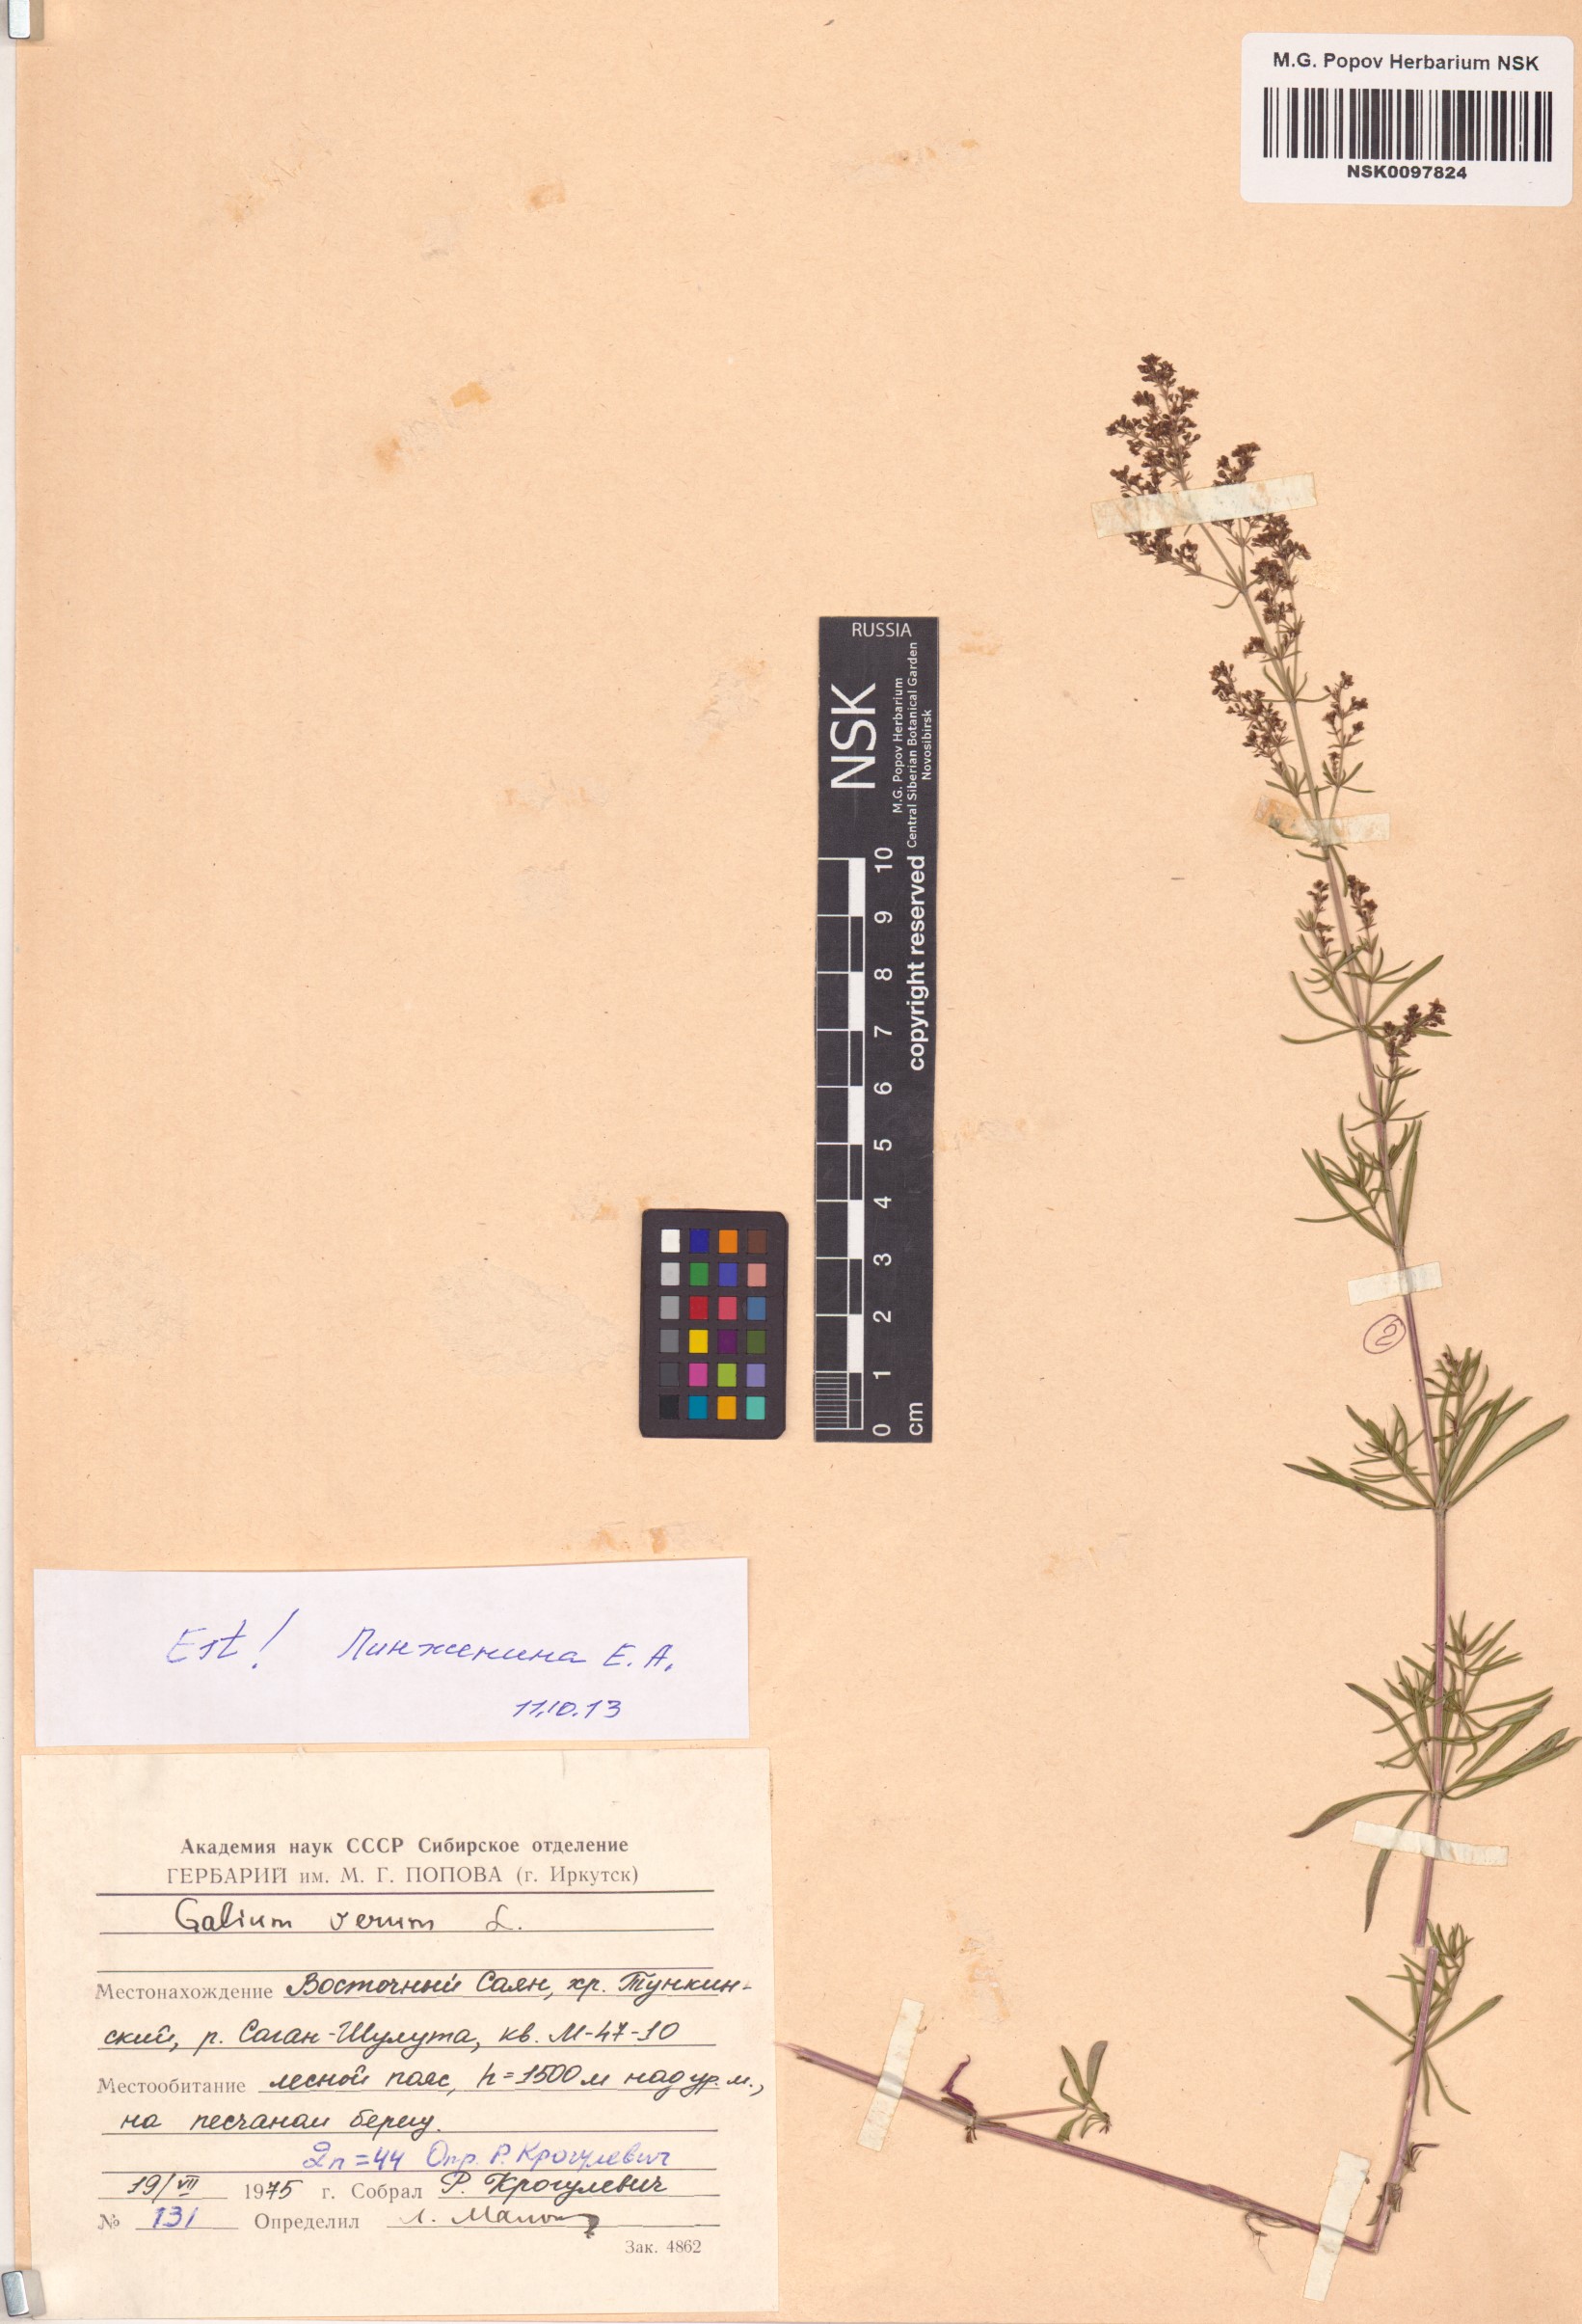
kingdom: Plantae
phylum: Tracheophyta
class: Magnoliopsida
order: Gentianales
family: Rubiaceae
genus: Galium
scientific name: Galium verum
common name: Lady's bedstraw
